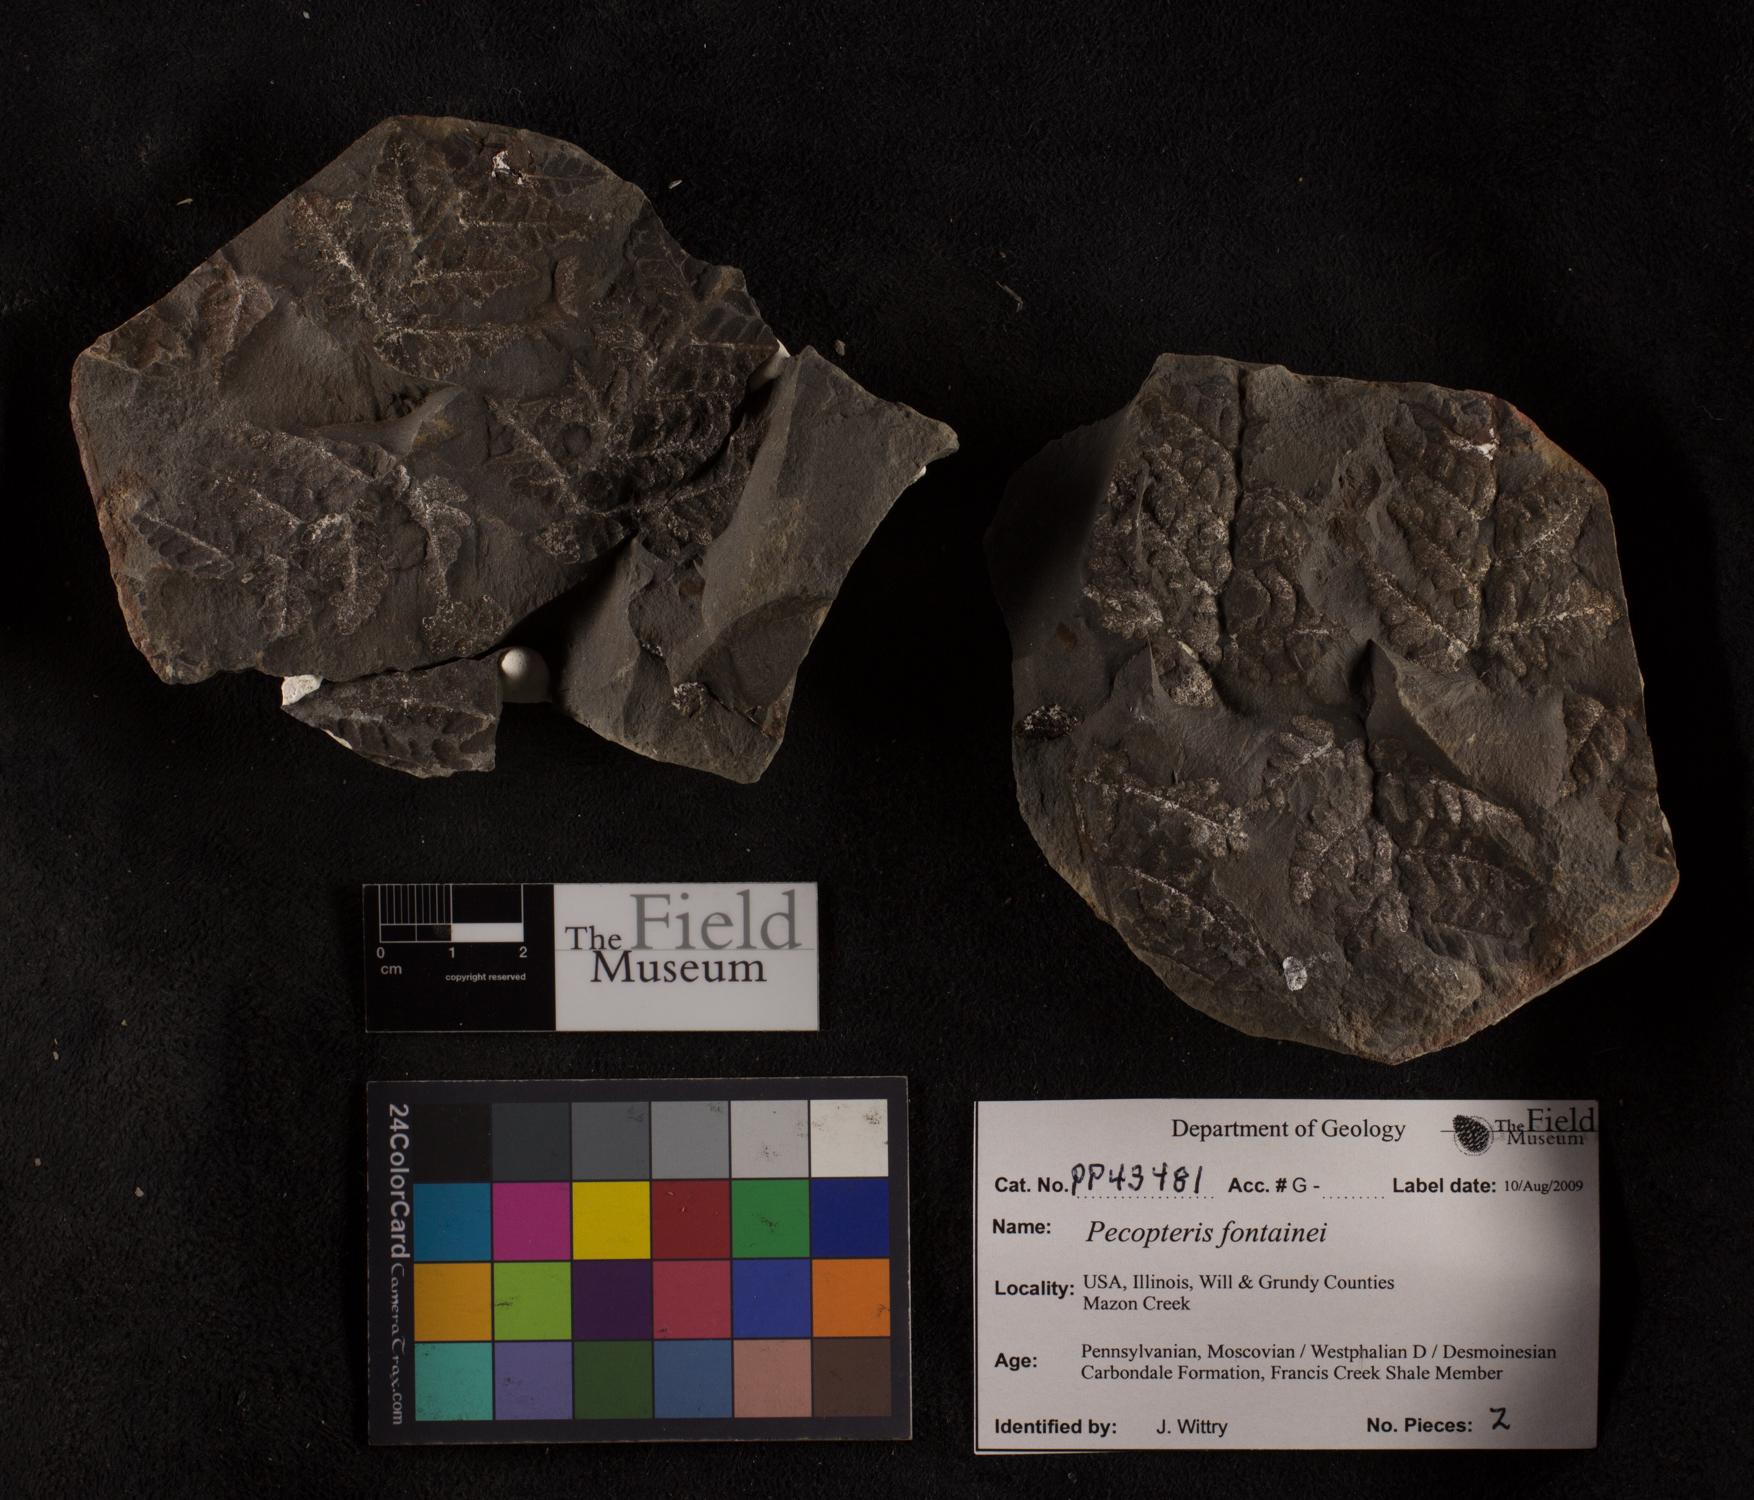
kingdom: Plantae
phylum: Tracheophyta
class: Polypodiopsida
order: Marattiales
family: Asterothecaceae
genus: Pecopteris
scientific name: Pecopteris
